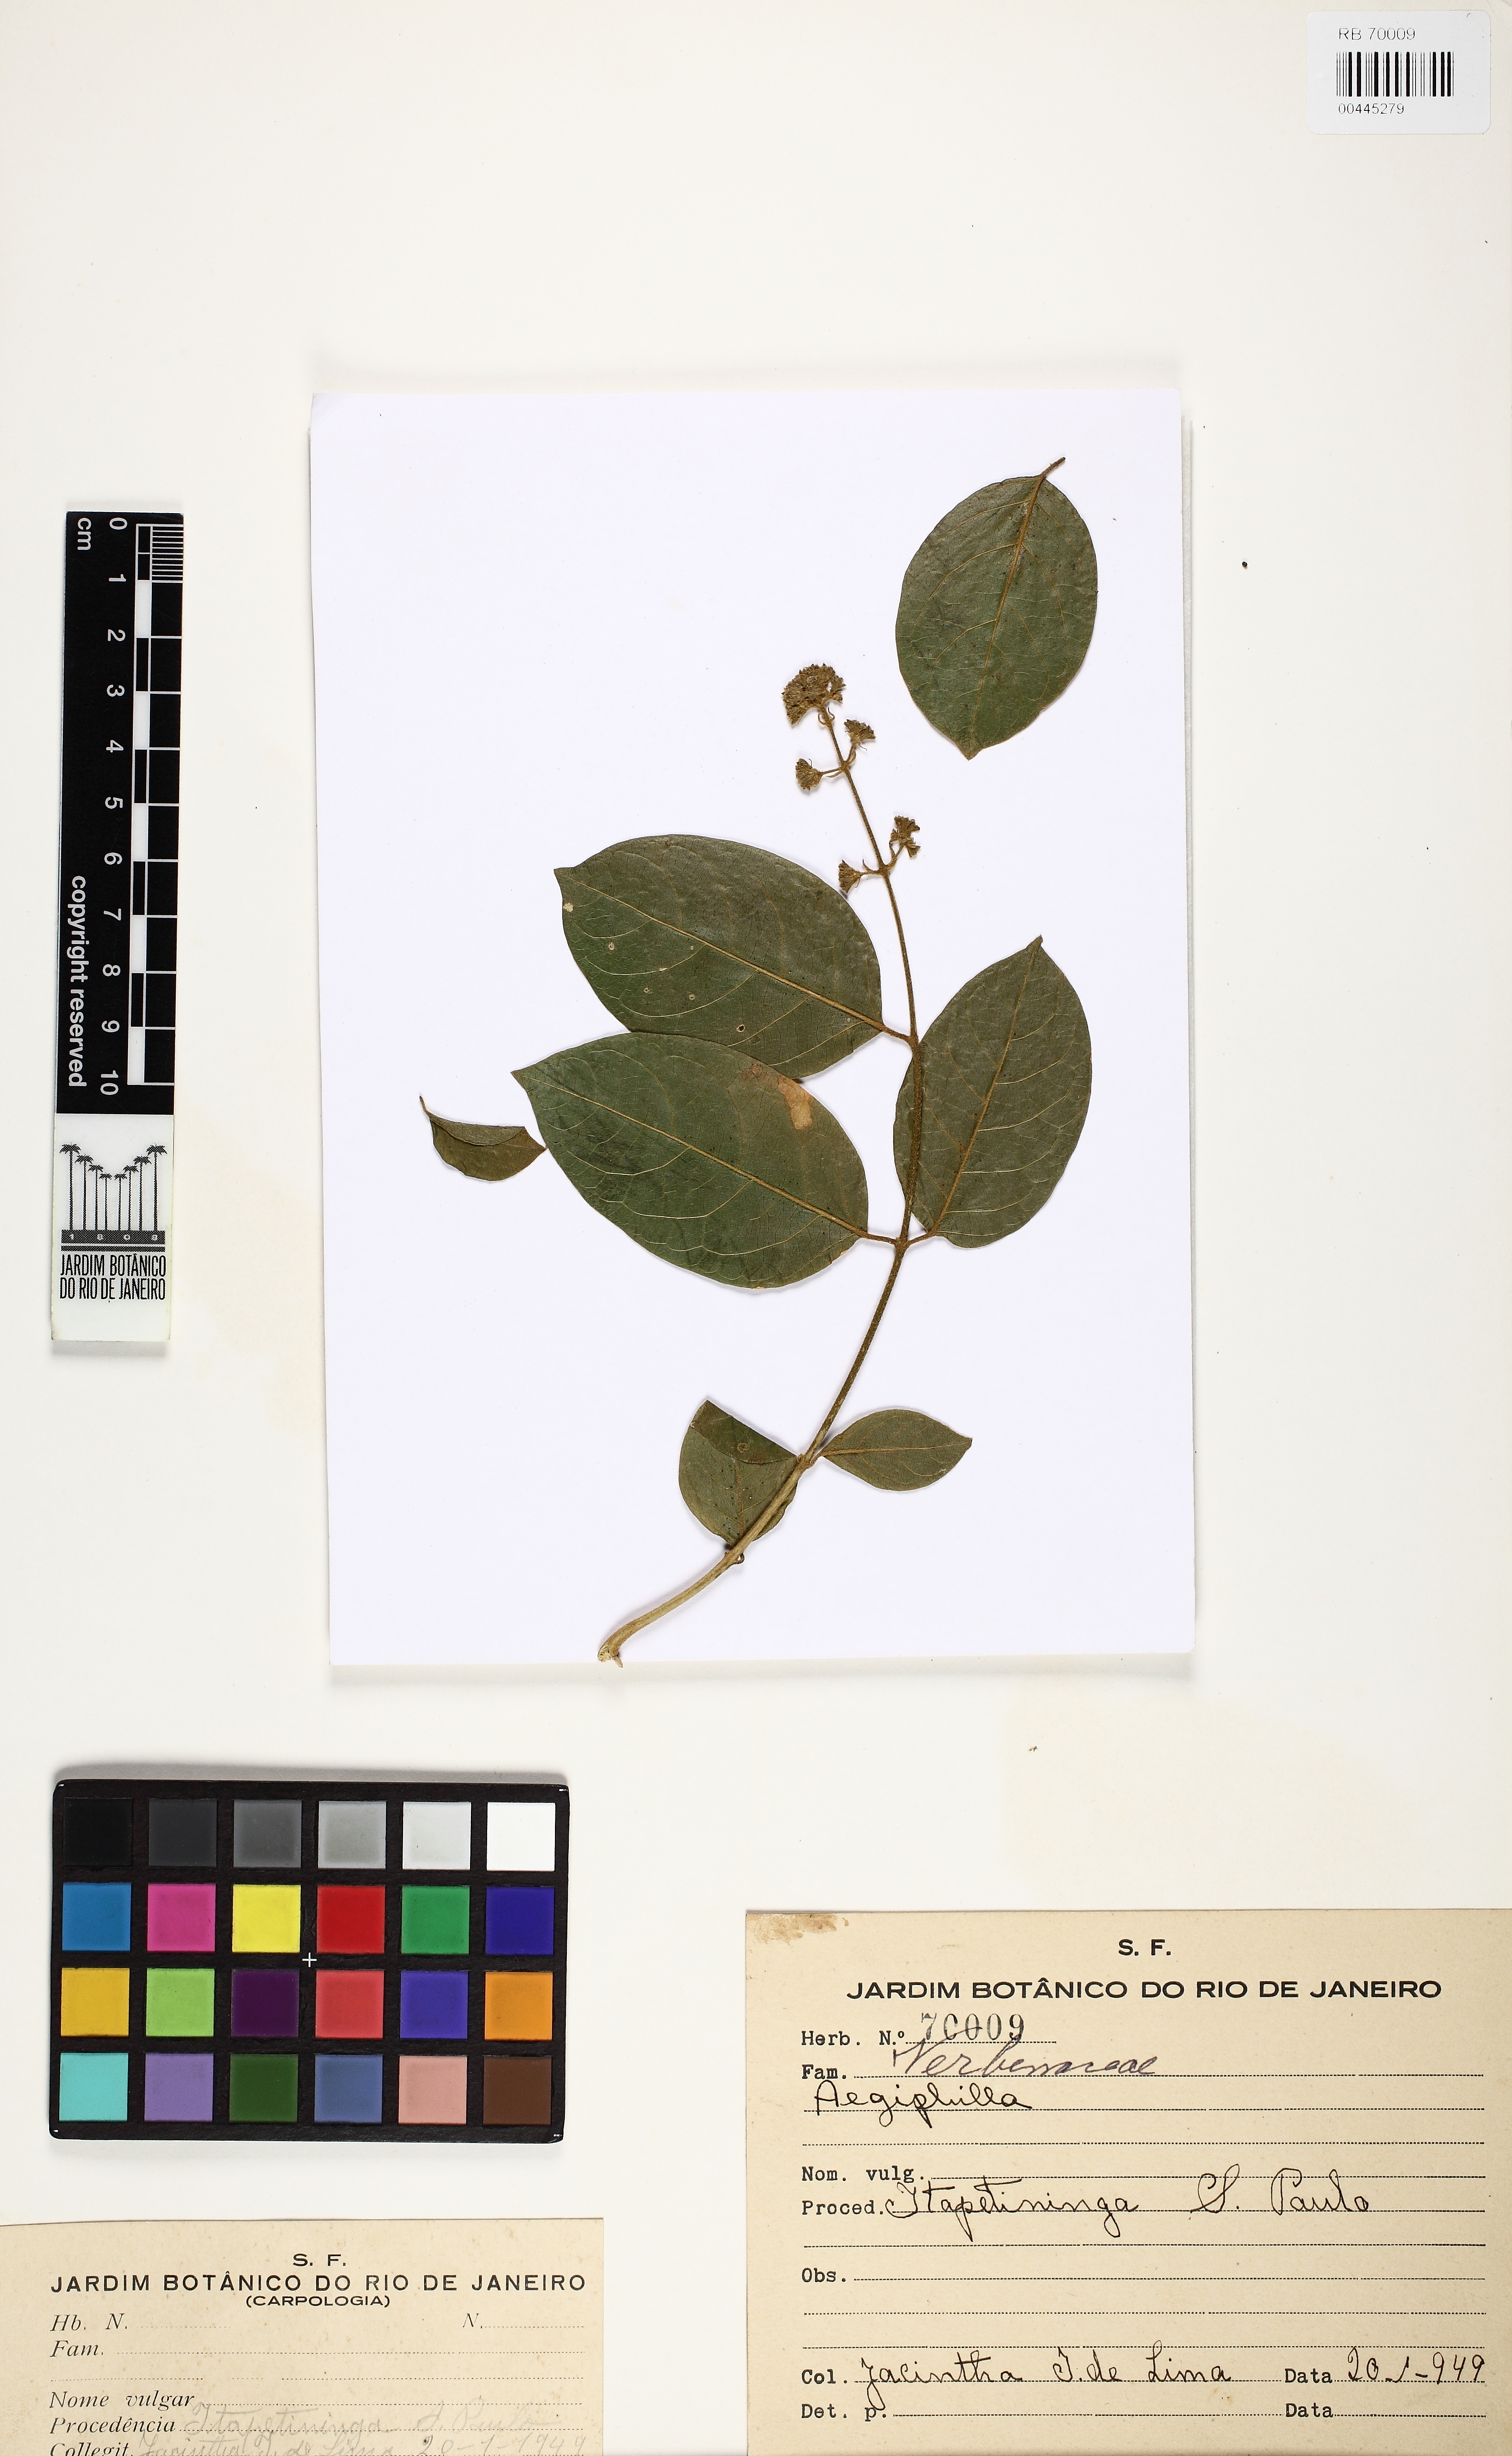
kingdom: Plantae
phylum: Tracheophyta
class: Magnoliopsida
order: Lamiales
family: Lamiaceae
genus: Aegiphila
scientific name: Aegiphila
